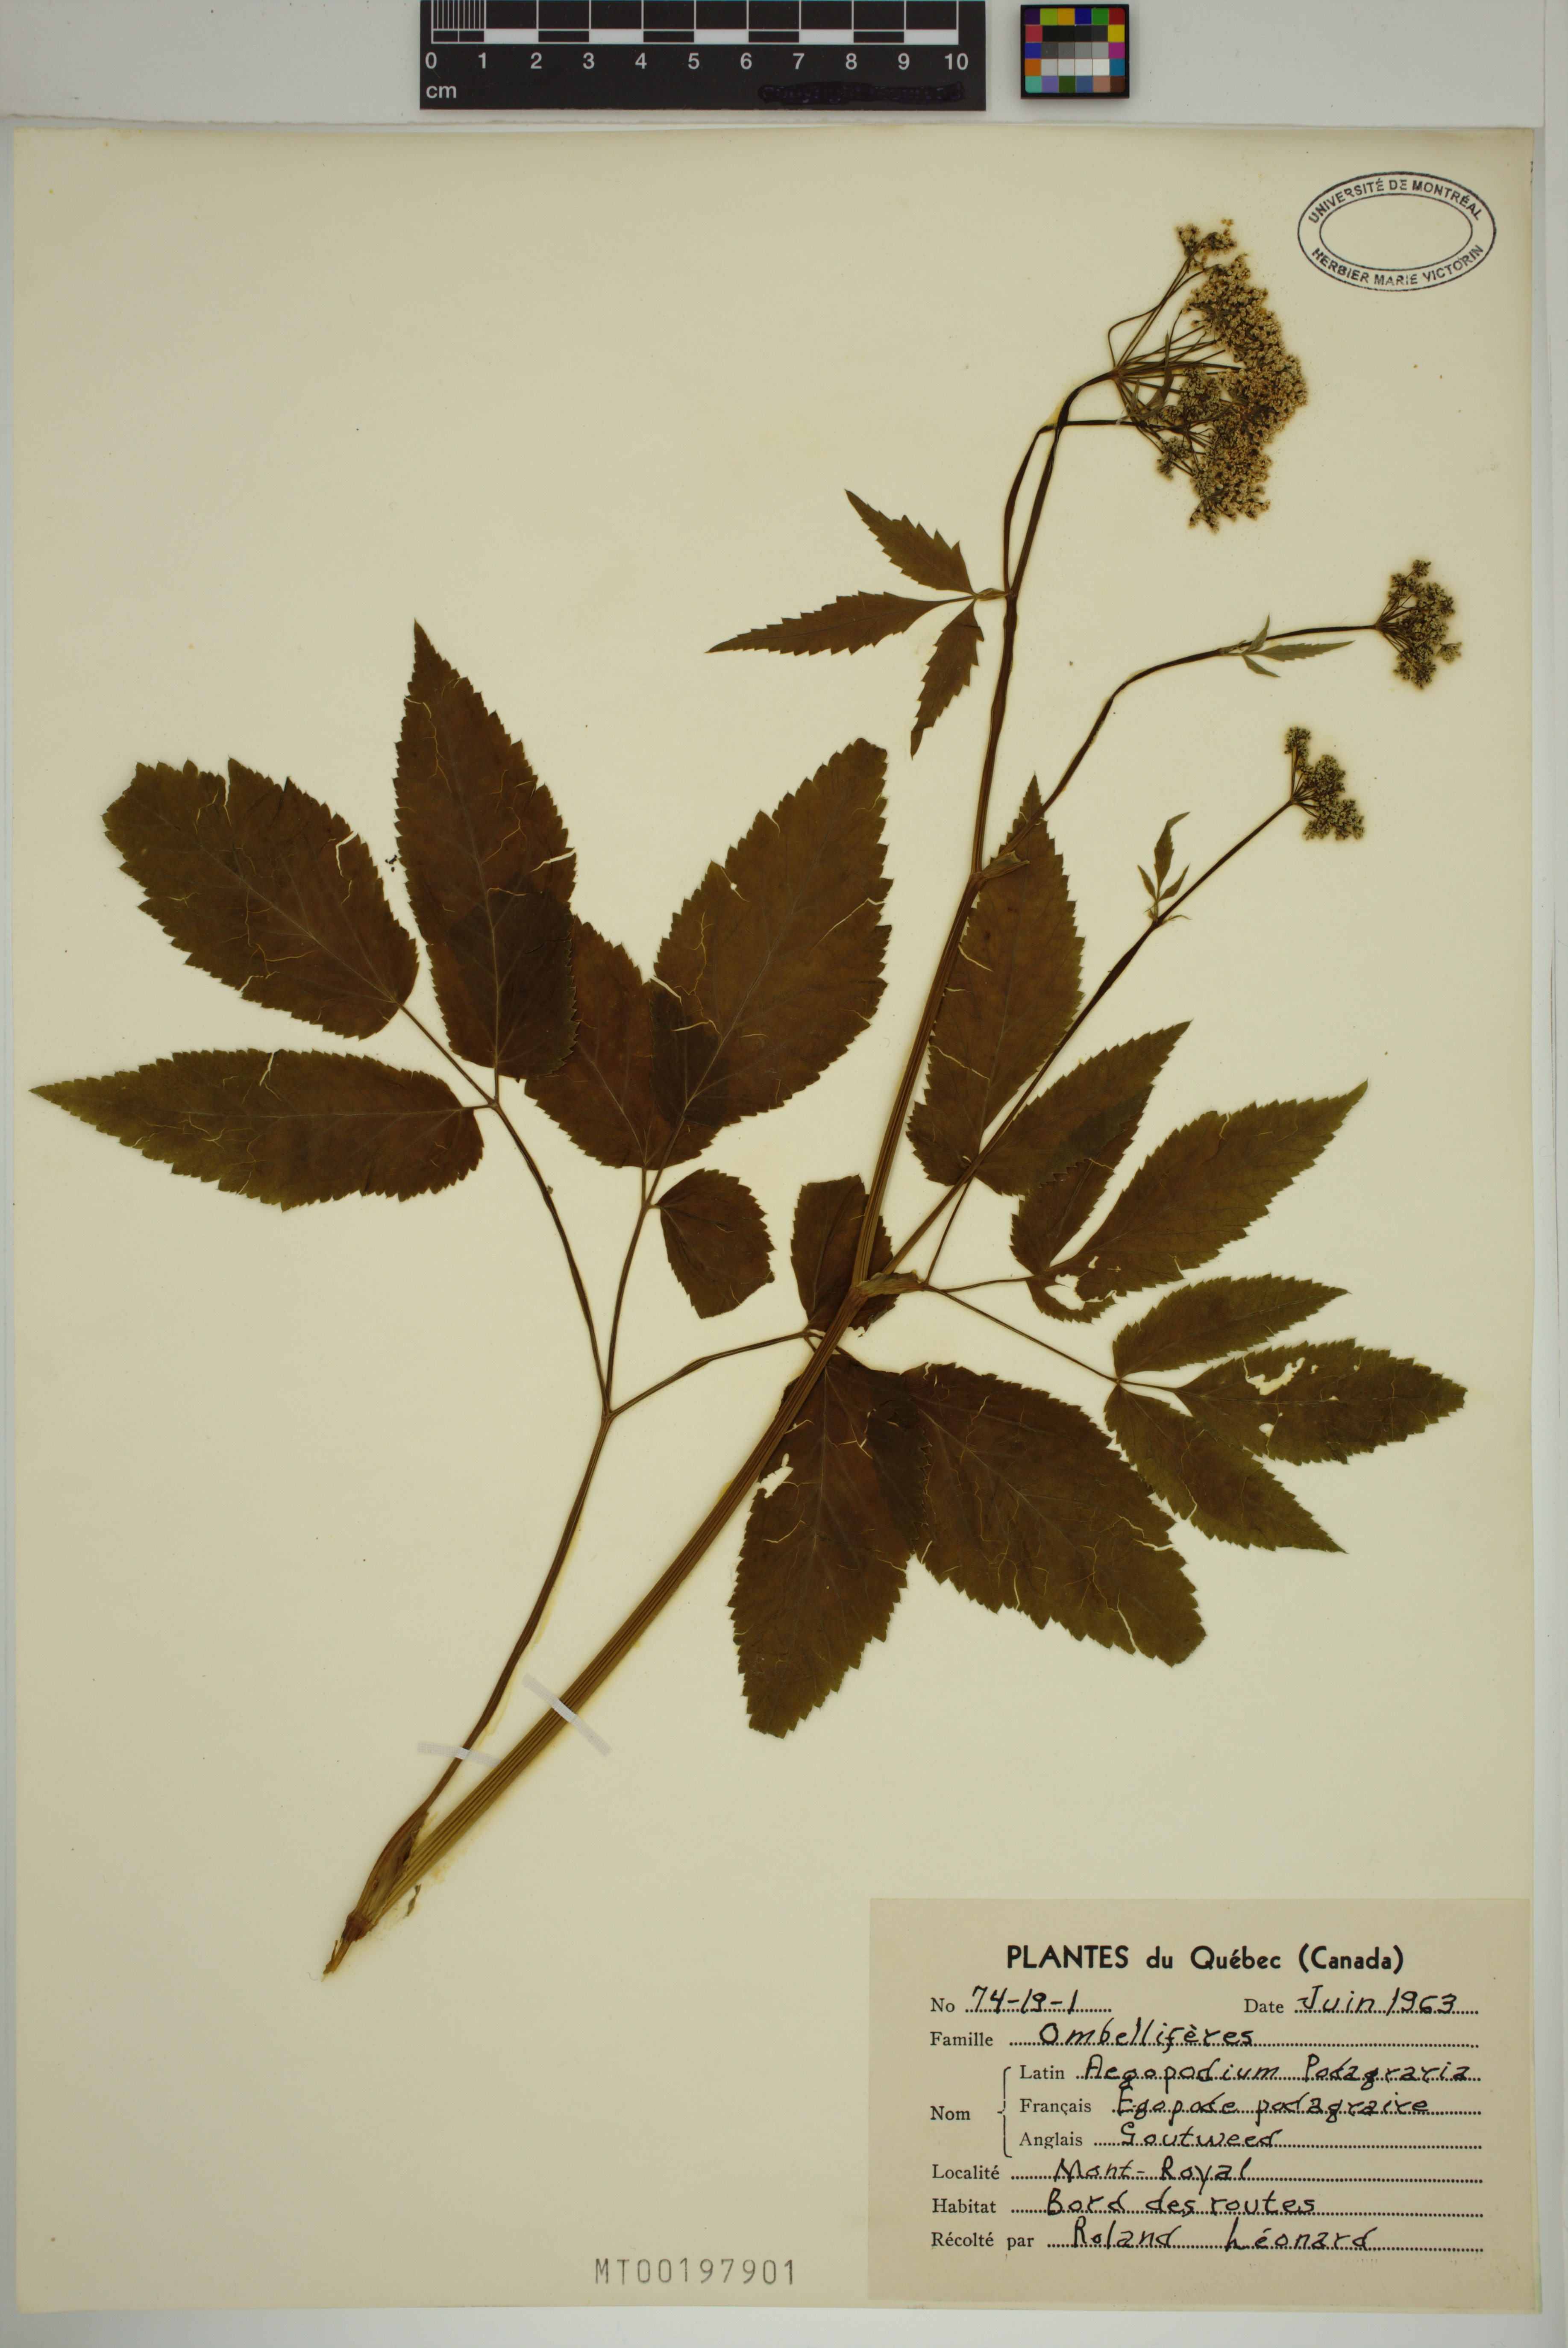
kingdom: Plantae
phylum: Tracheophyta
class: Magnoliopsida
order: Apiales
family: Apiaceae
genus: Aegopodium
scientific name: Aegopodium podagraria
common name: Ground-elder
